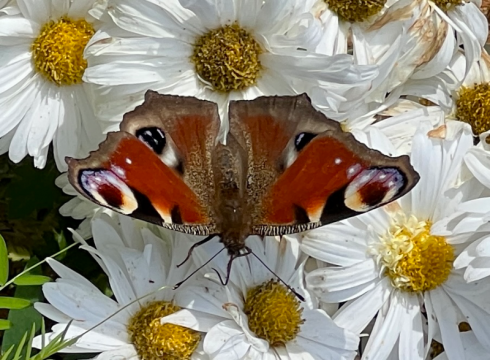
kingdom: Animalia
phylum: Arthropoda
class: Insecta
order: Lepidoptera
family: Nymphalidae
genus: Aglais
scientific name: Aglais io
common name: European Peacock
